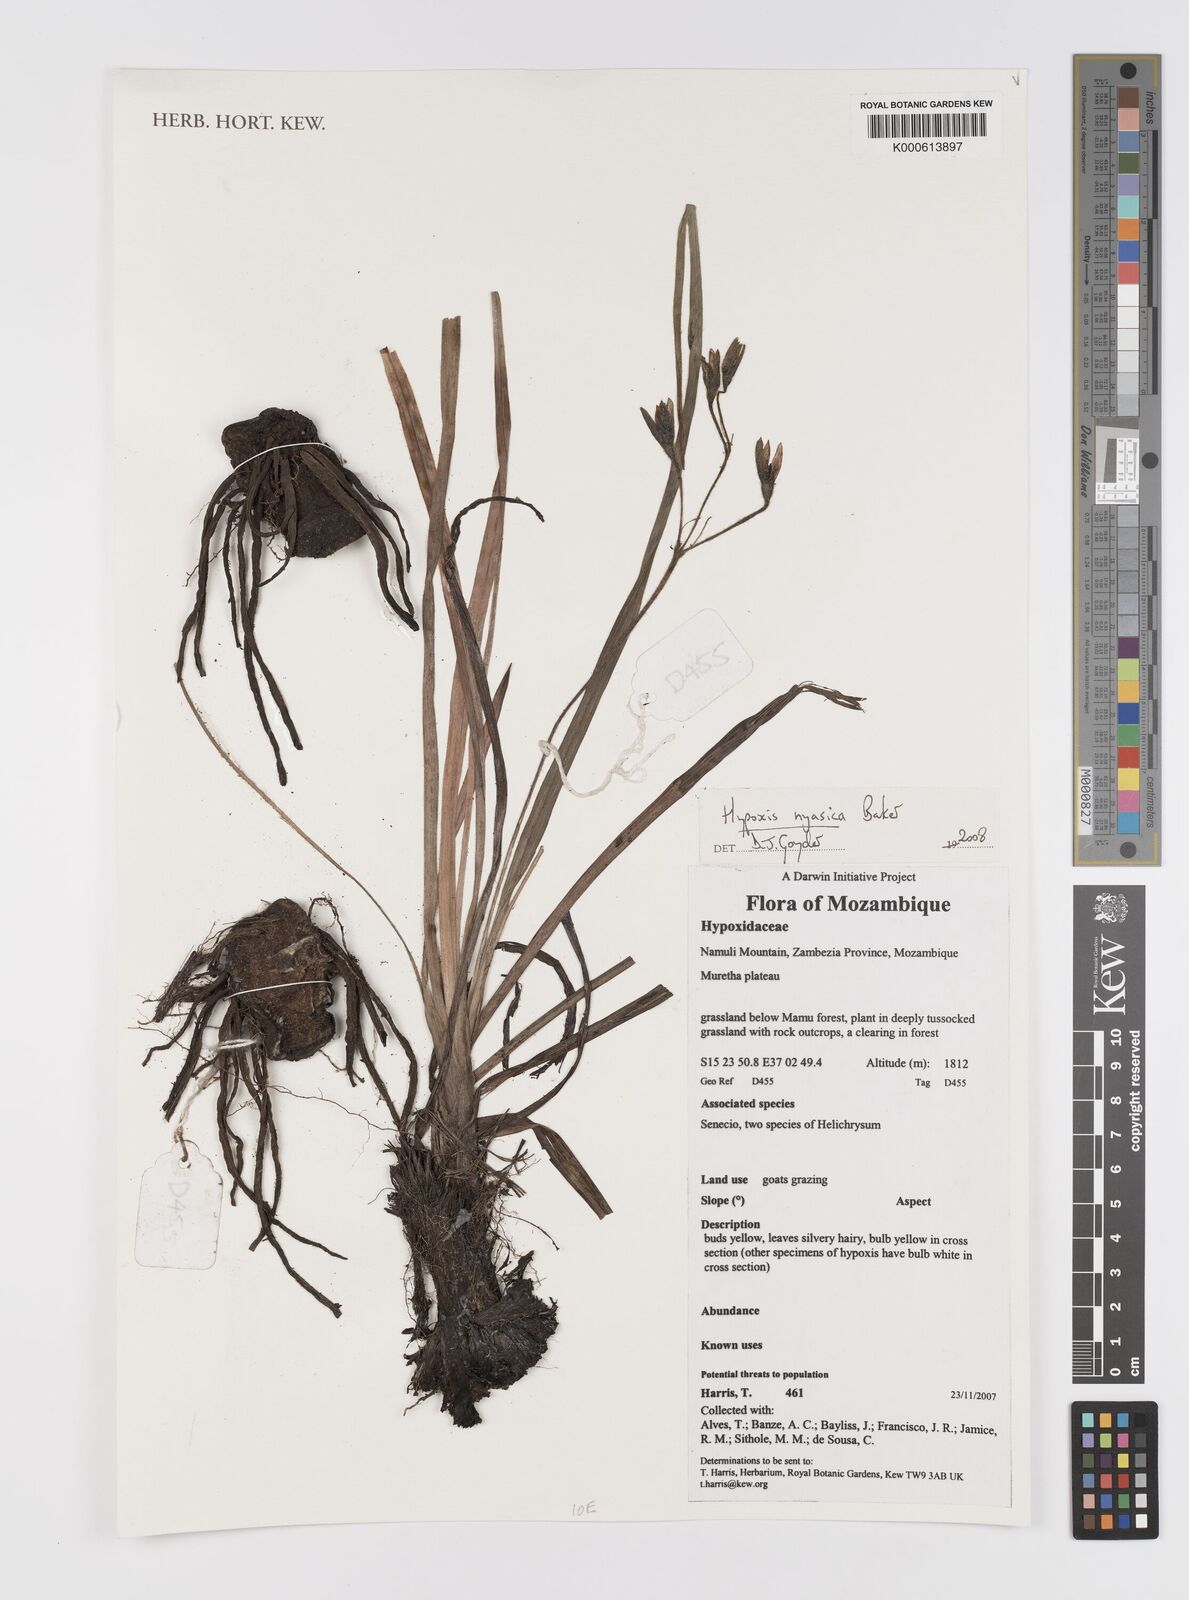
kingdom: Plantae
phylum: Tracheophyta
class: Liliopsida
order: Asparagales
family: Hypoxidaceae
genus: Hypoxis
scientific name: Hypoxis nyasica
